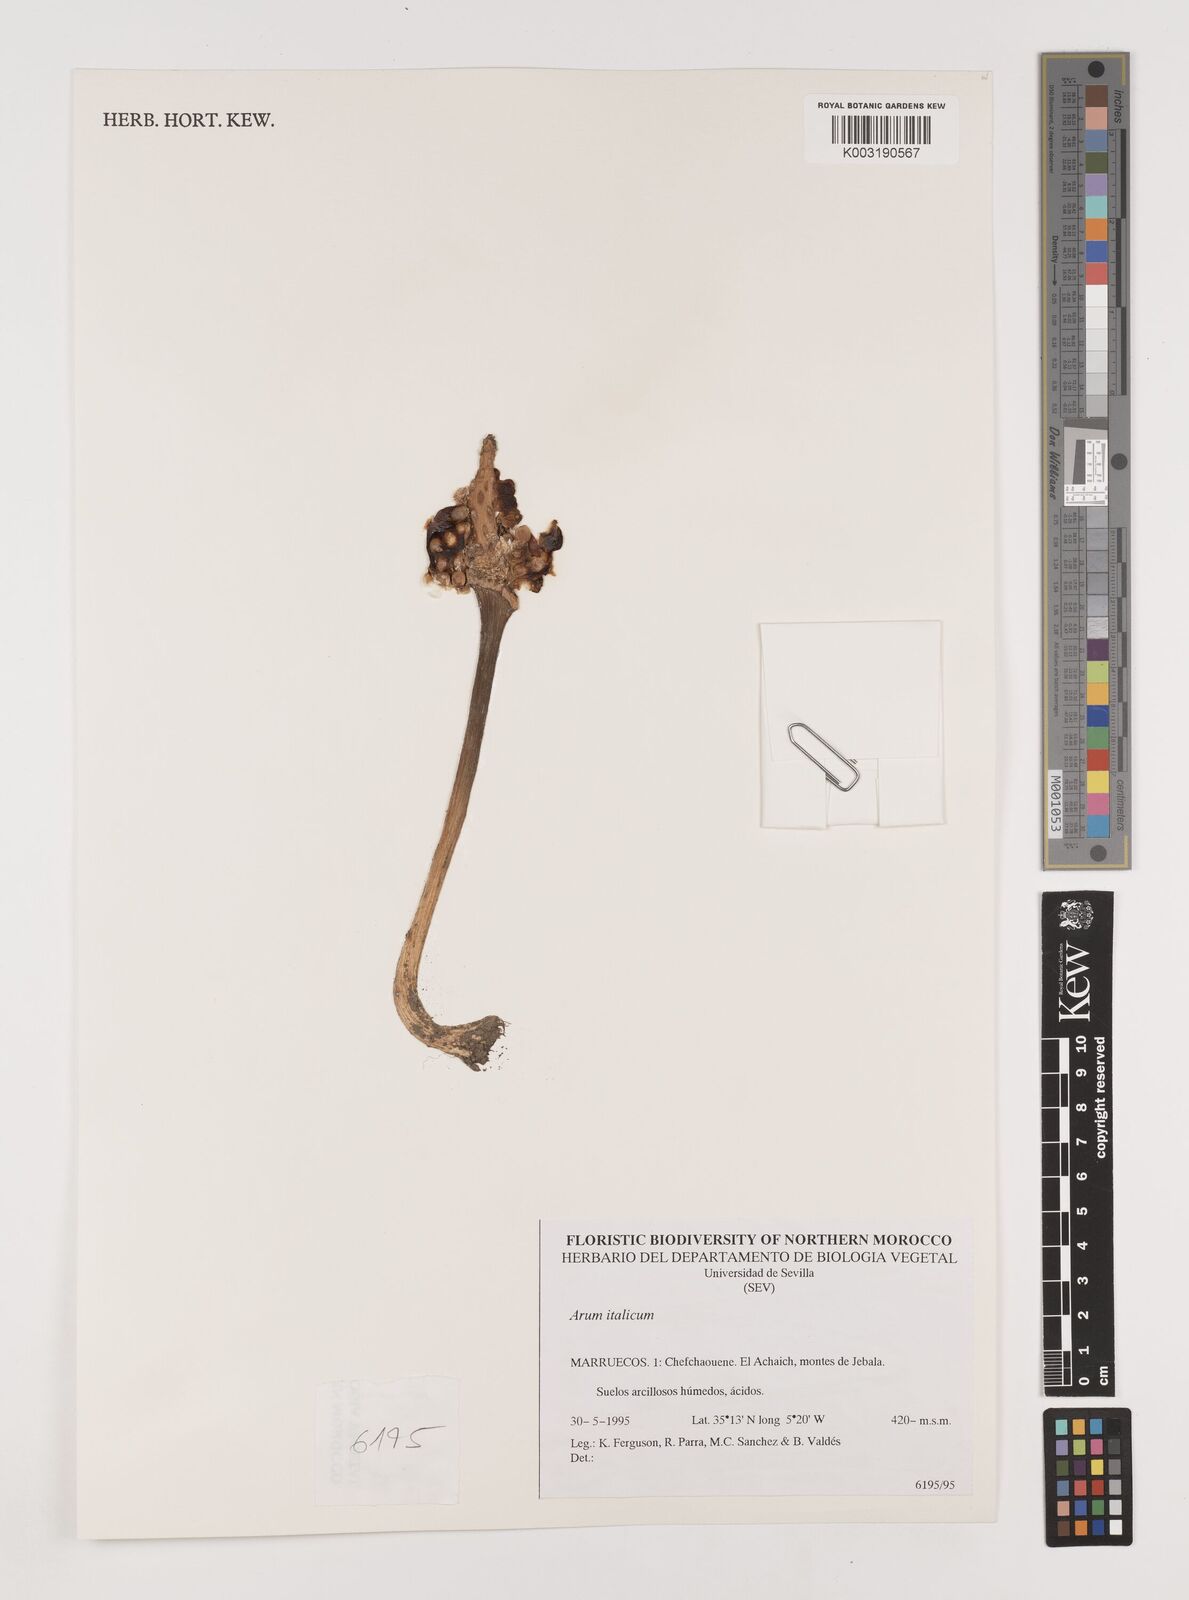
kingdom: Plantae
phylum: Tracheophyta
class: Liliopsida
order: Alismatales
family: Araceae
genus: Arum
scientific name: Arum italicum
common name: Italian lords-and-ladies
